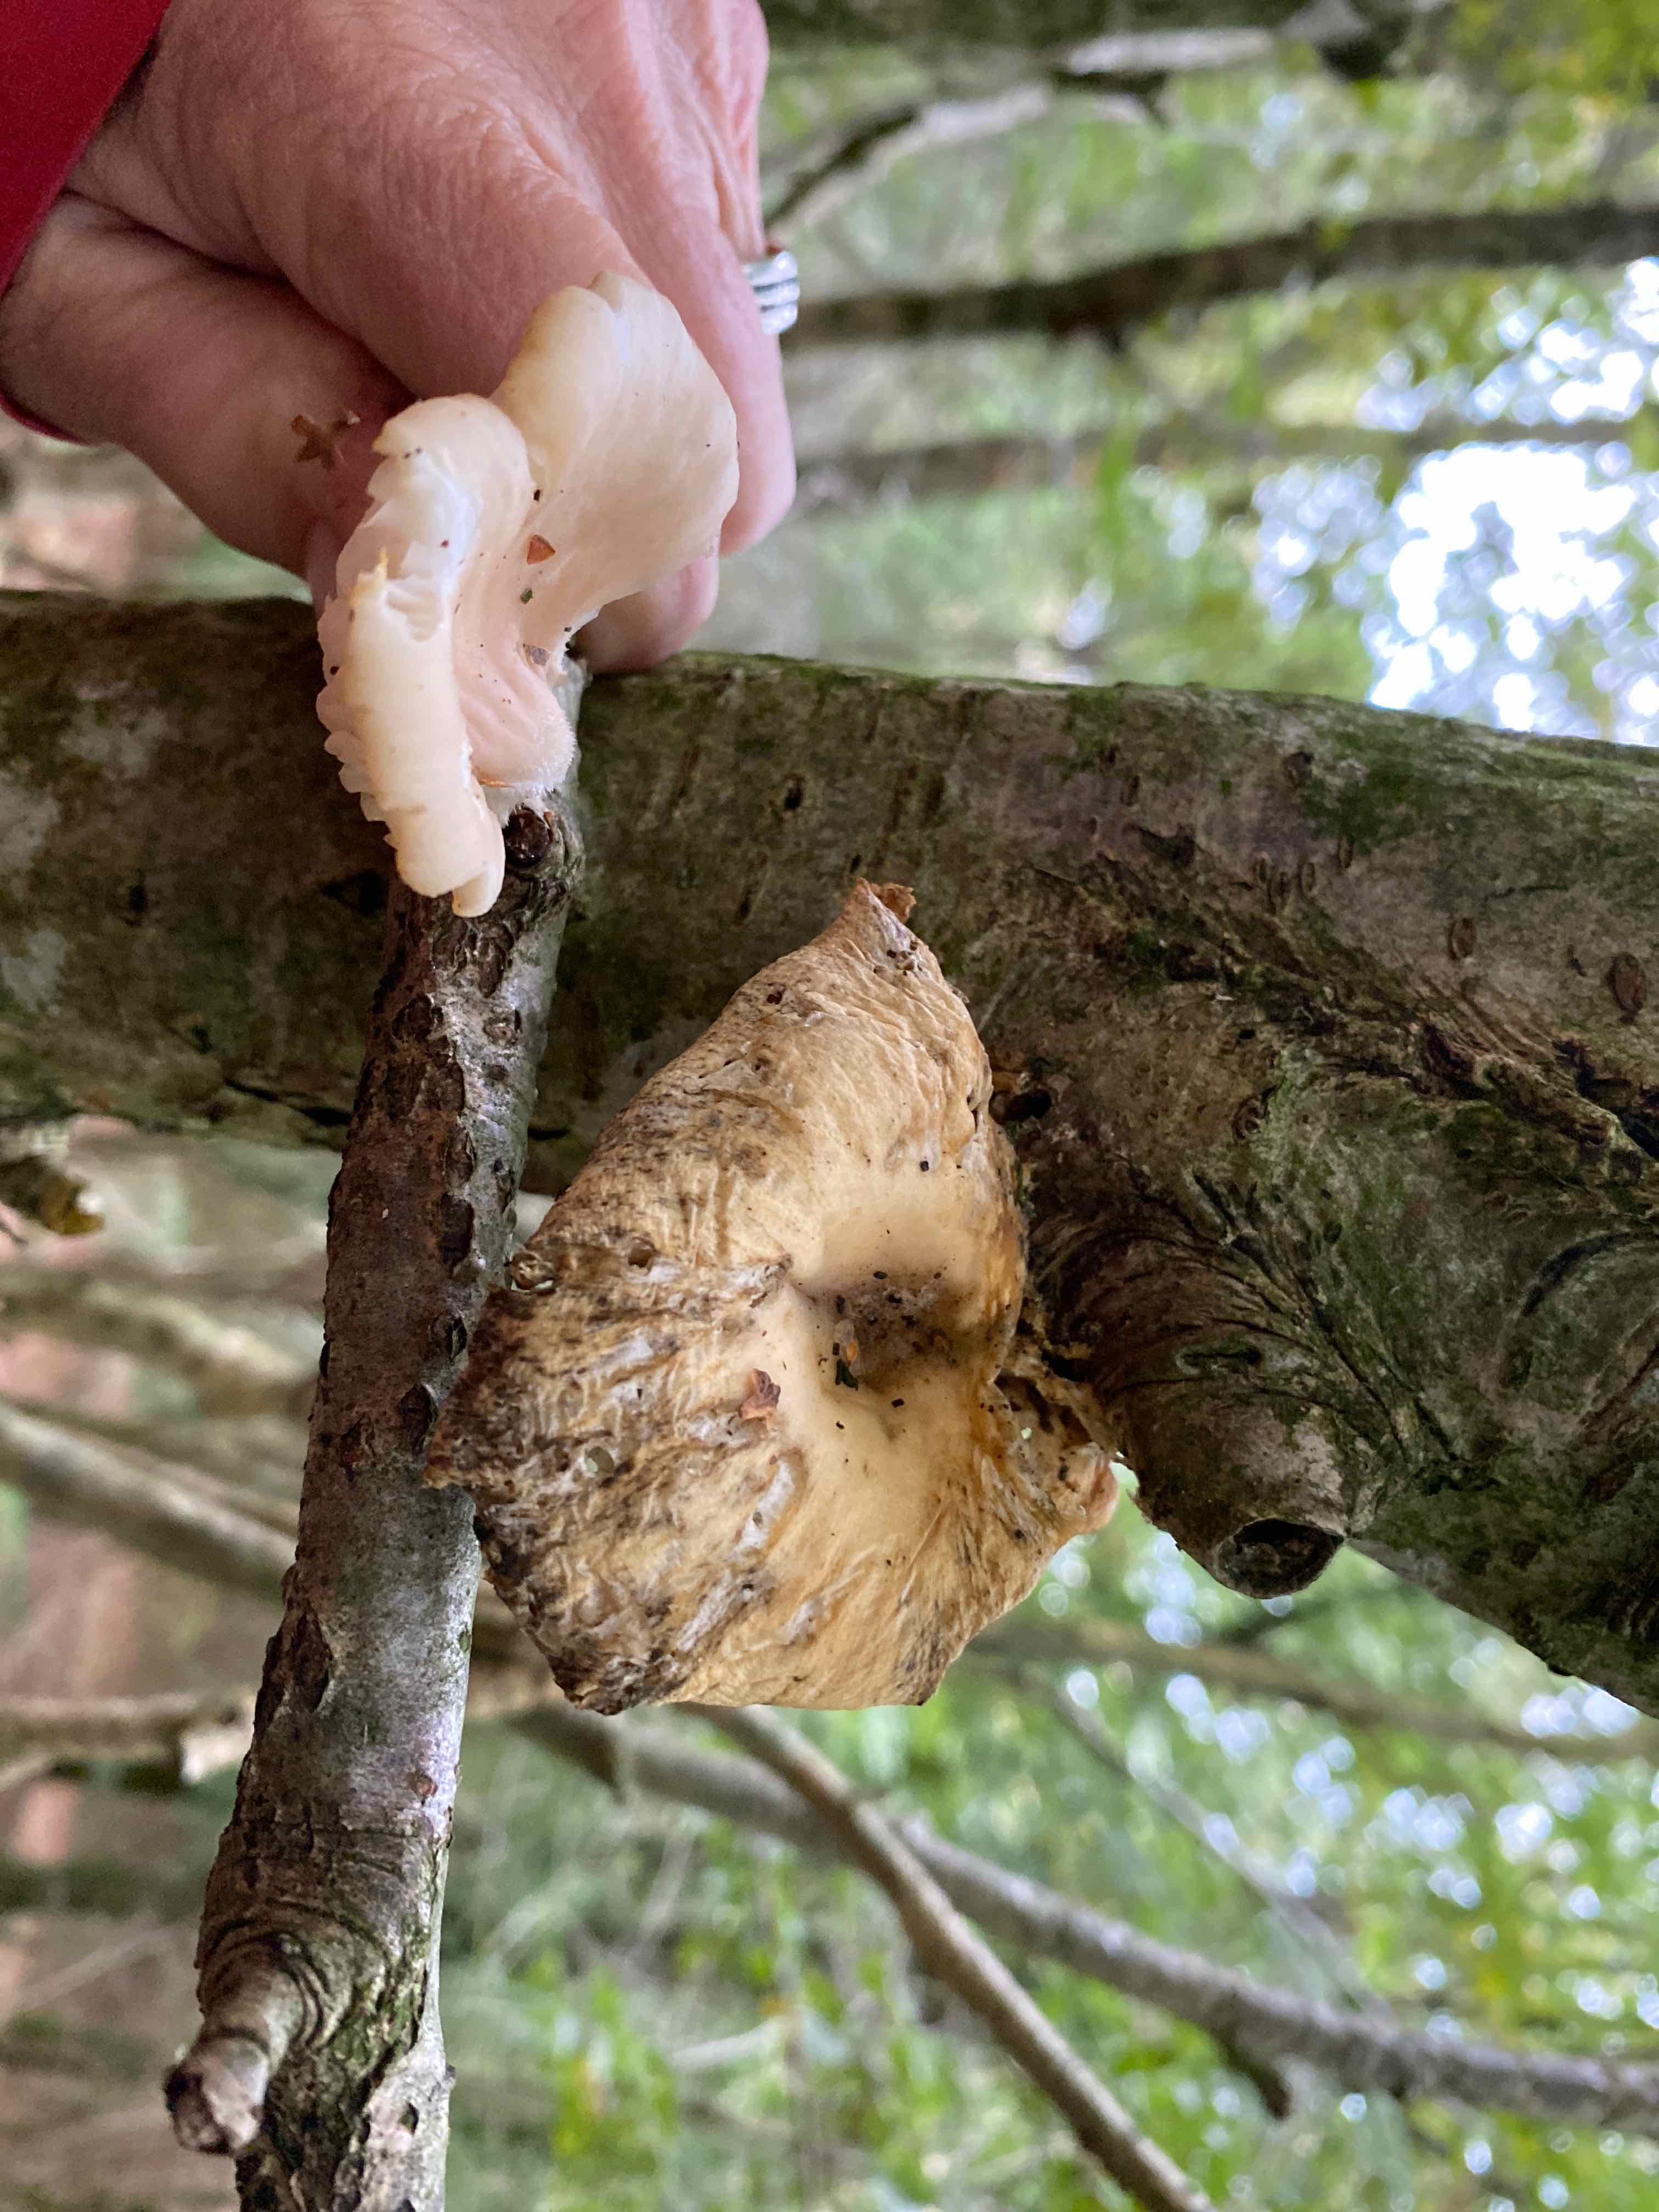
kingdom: Fungi
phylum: Basidiomycota
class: Agaricomycetes
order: Agaricales
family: Pleurotaceae
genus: Pleurotus
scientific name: Pleurotus
